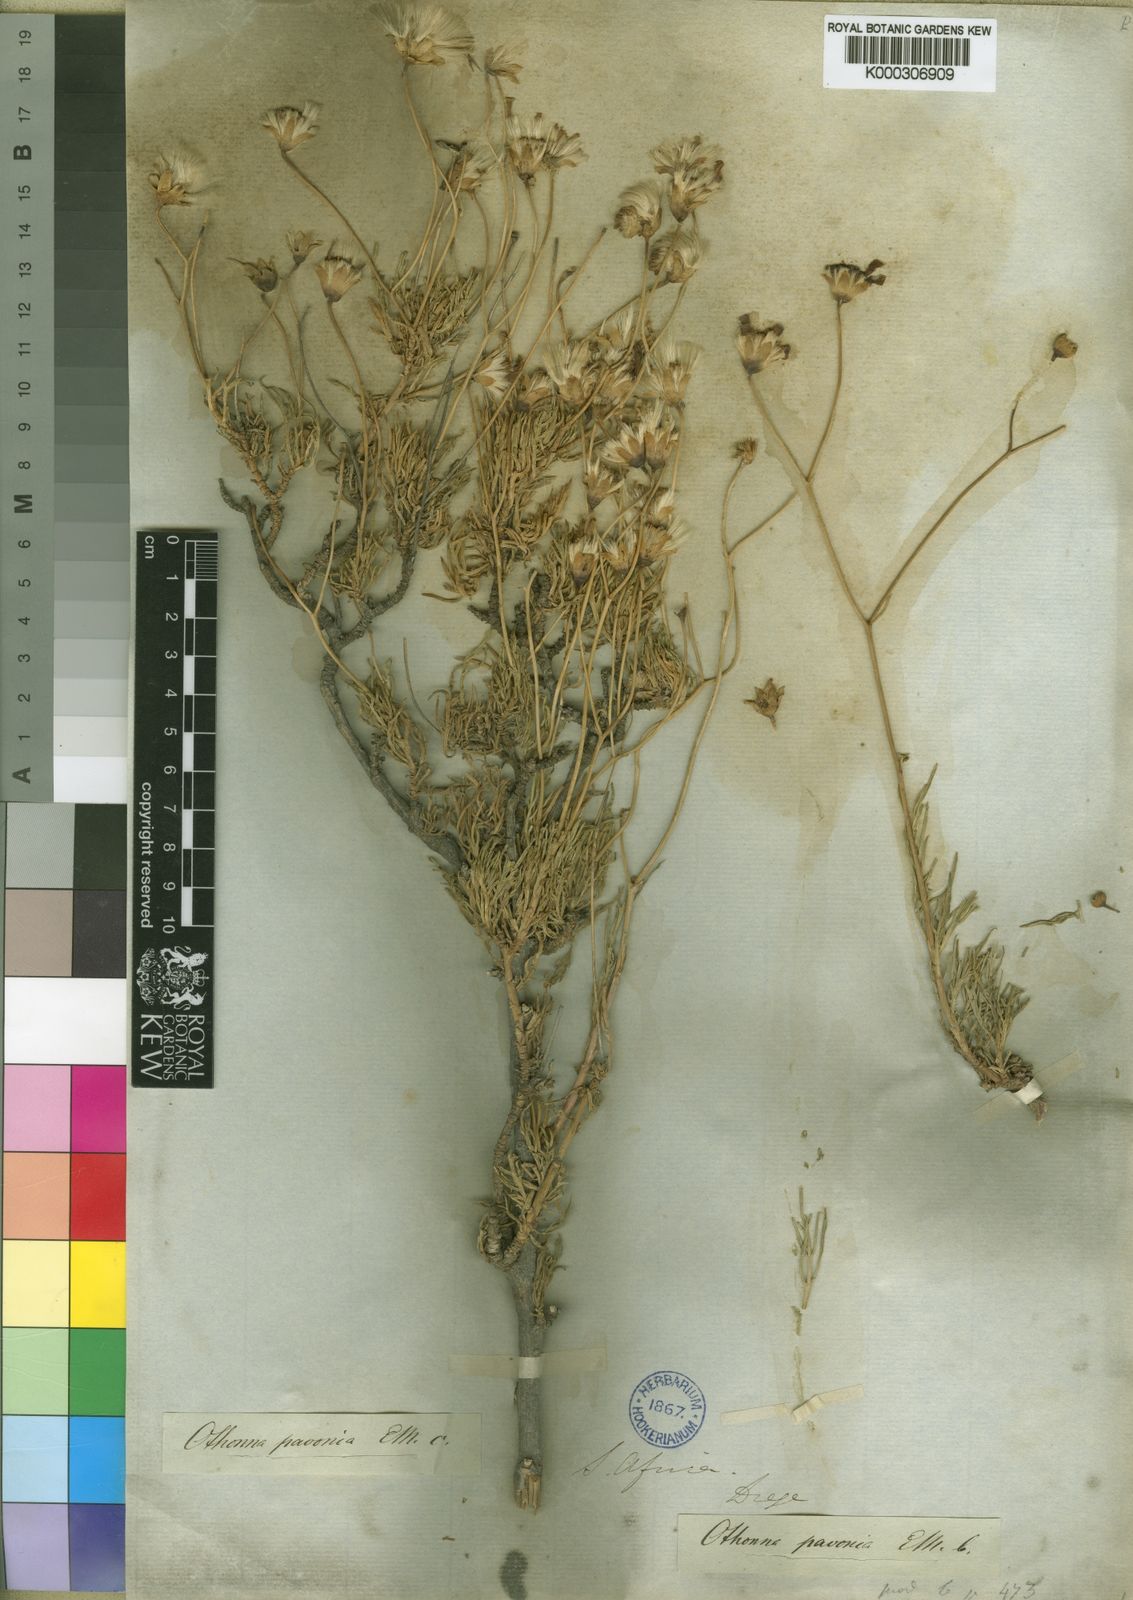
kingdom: Plantae
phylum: Tracheophyta
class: Magnoliopsida
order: Asterales
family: Asteraceae
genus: Othonna
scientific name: Othonna
